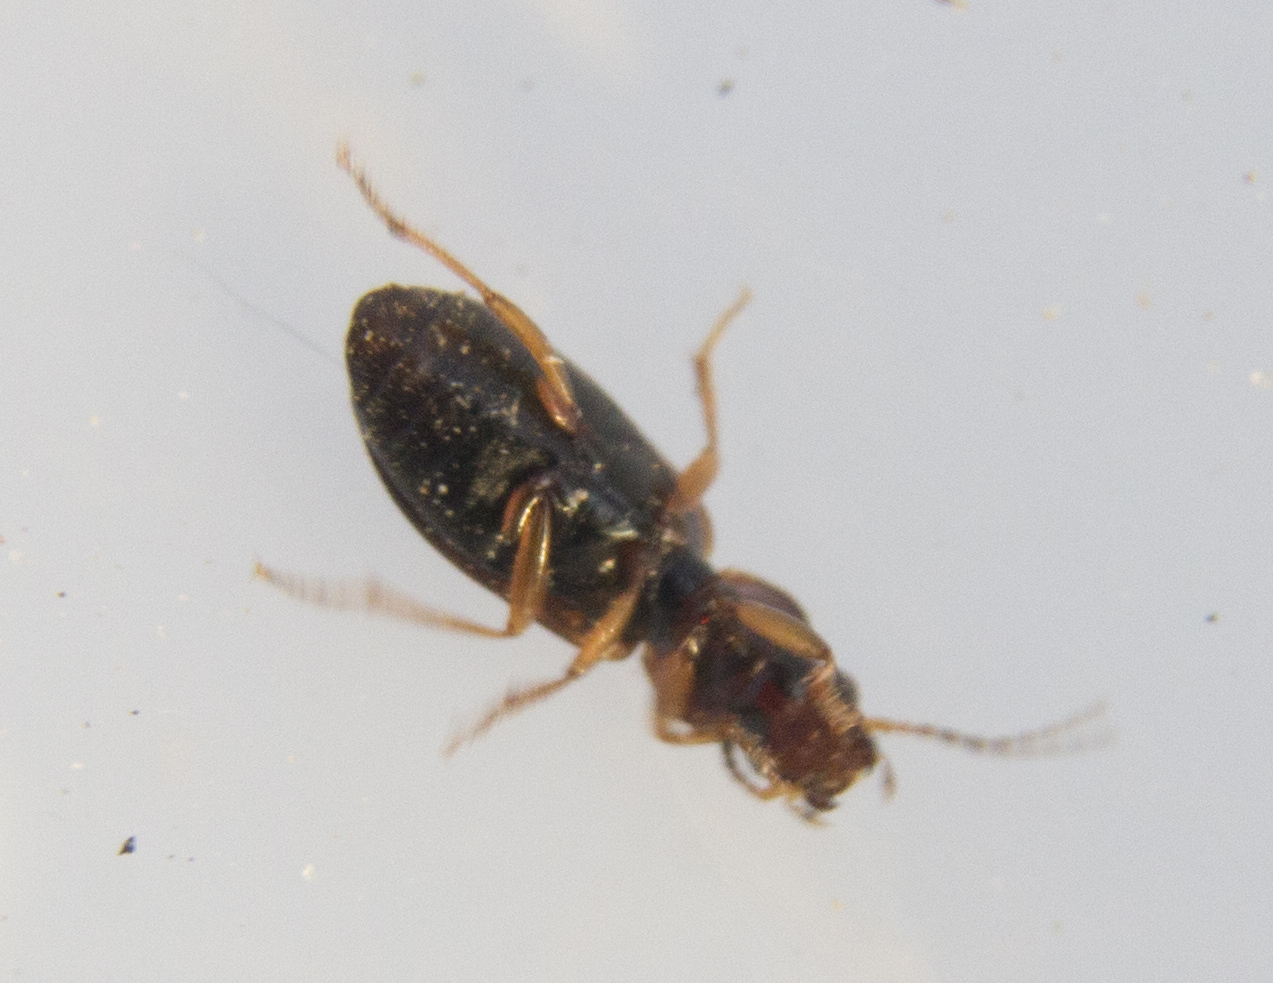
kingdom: Animalia
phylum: Arthropoda
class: Insecta
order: Coleoptera
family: Carabidae
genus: Dicheirotrichus
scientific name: Dicheirotrichus rufithorax
